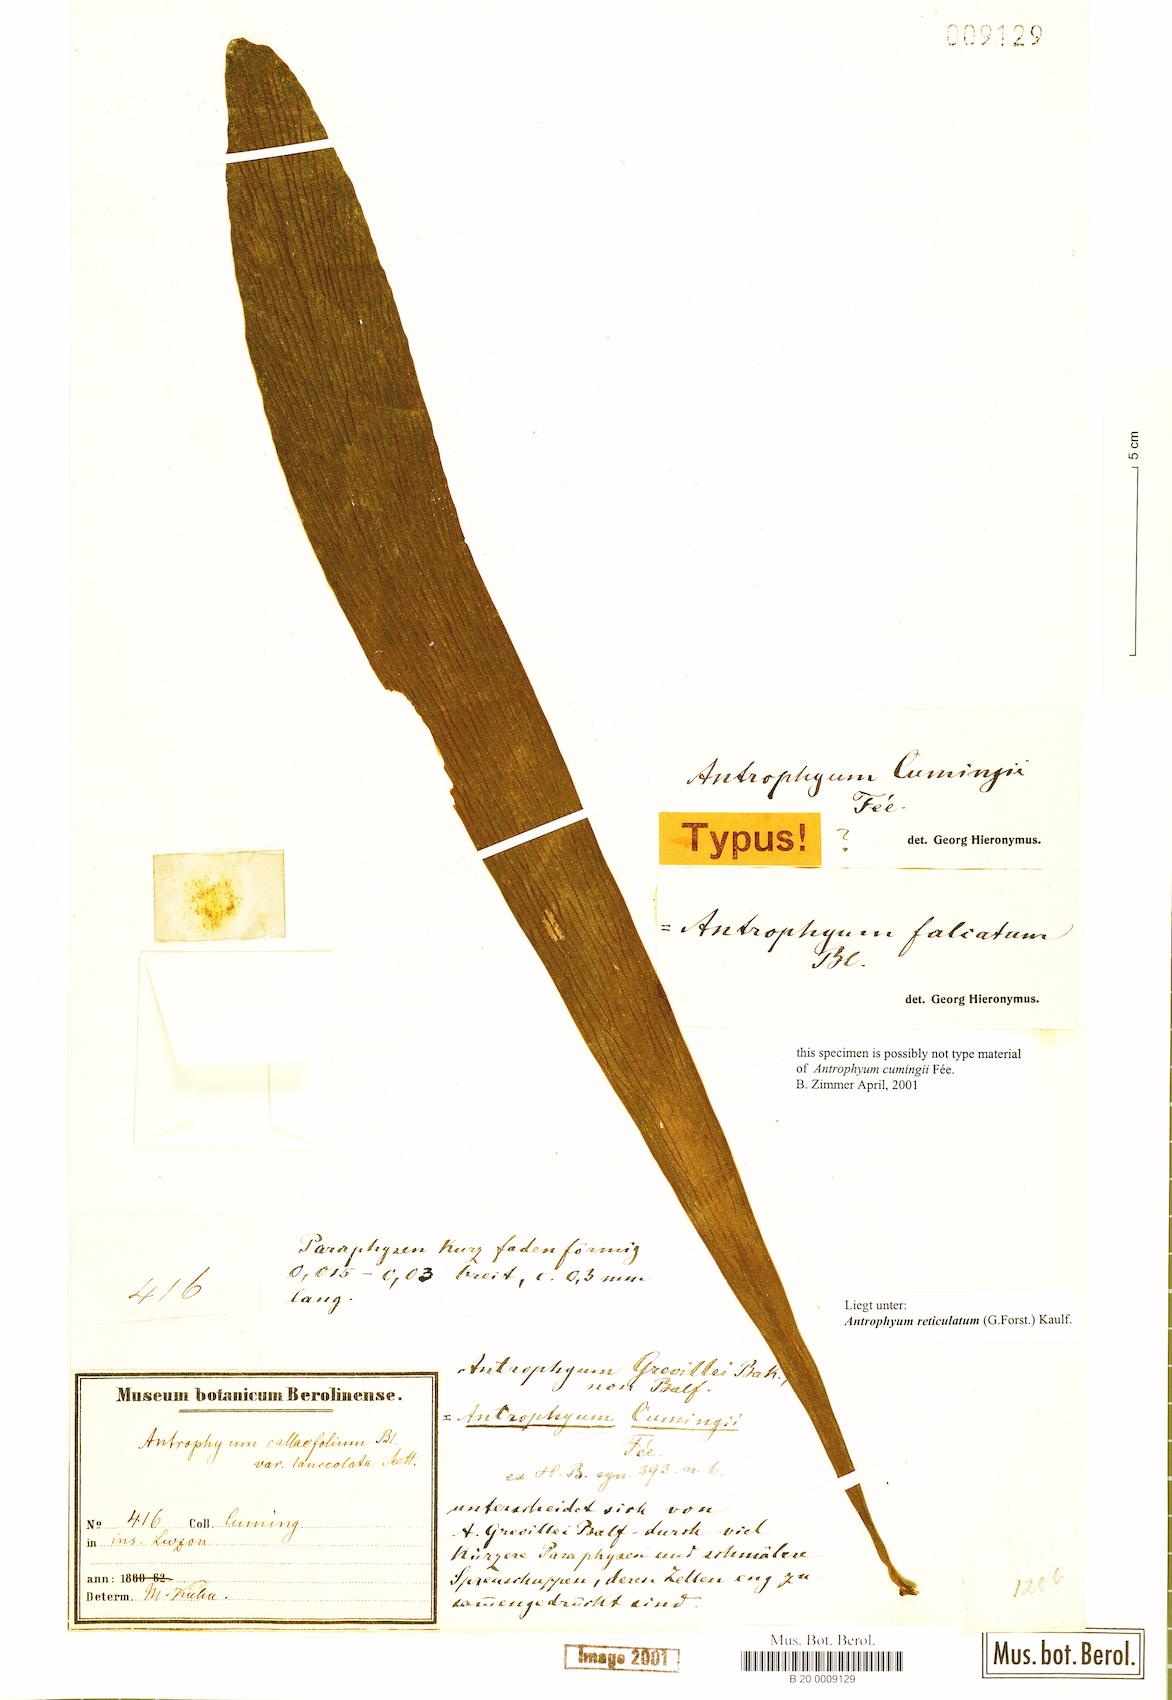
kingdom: Plantae
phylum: Tracheophyta
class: Polypodiopsida
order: Polypodiales
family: Pteridaceae
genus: Antrophyum
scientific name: Antrophyum reticulatum
